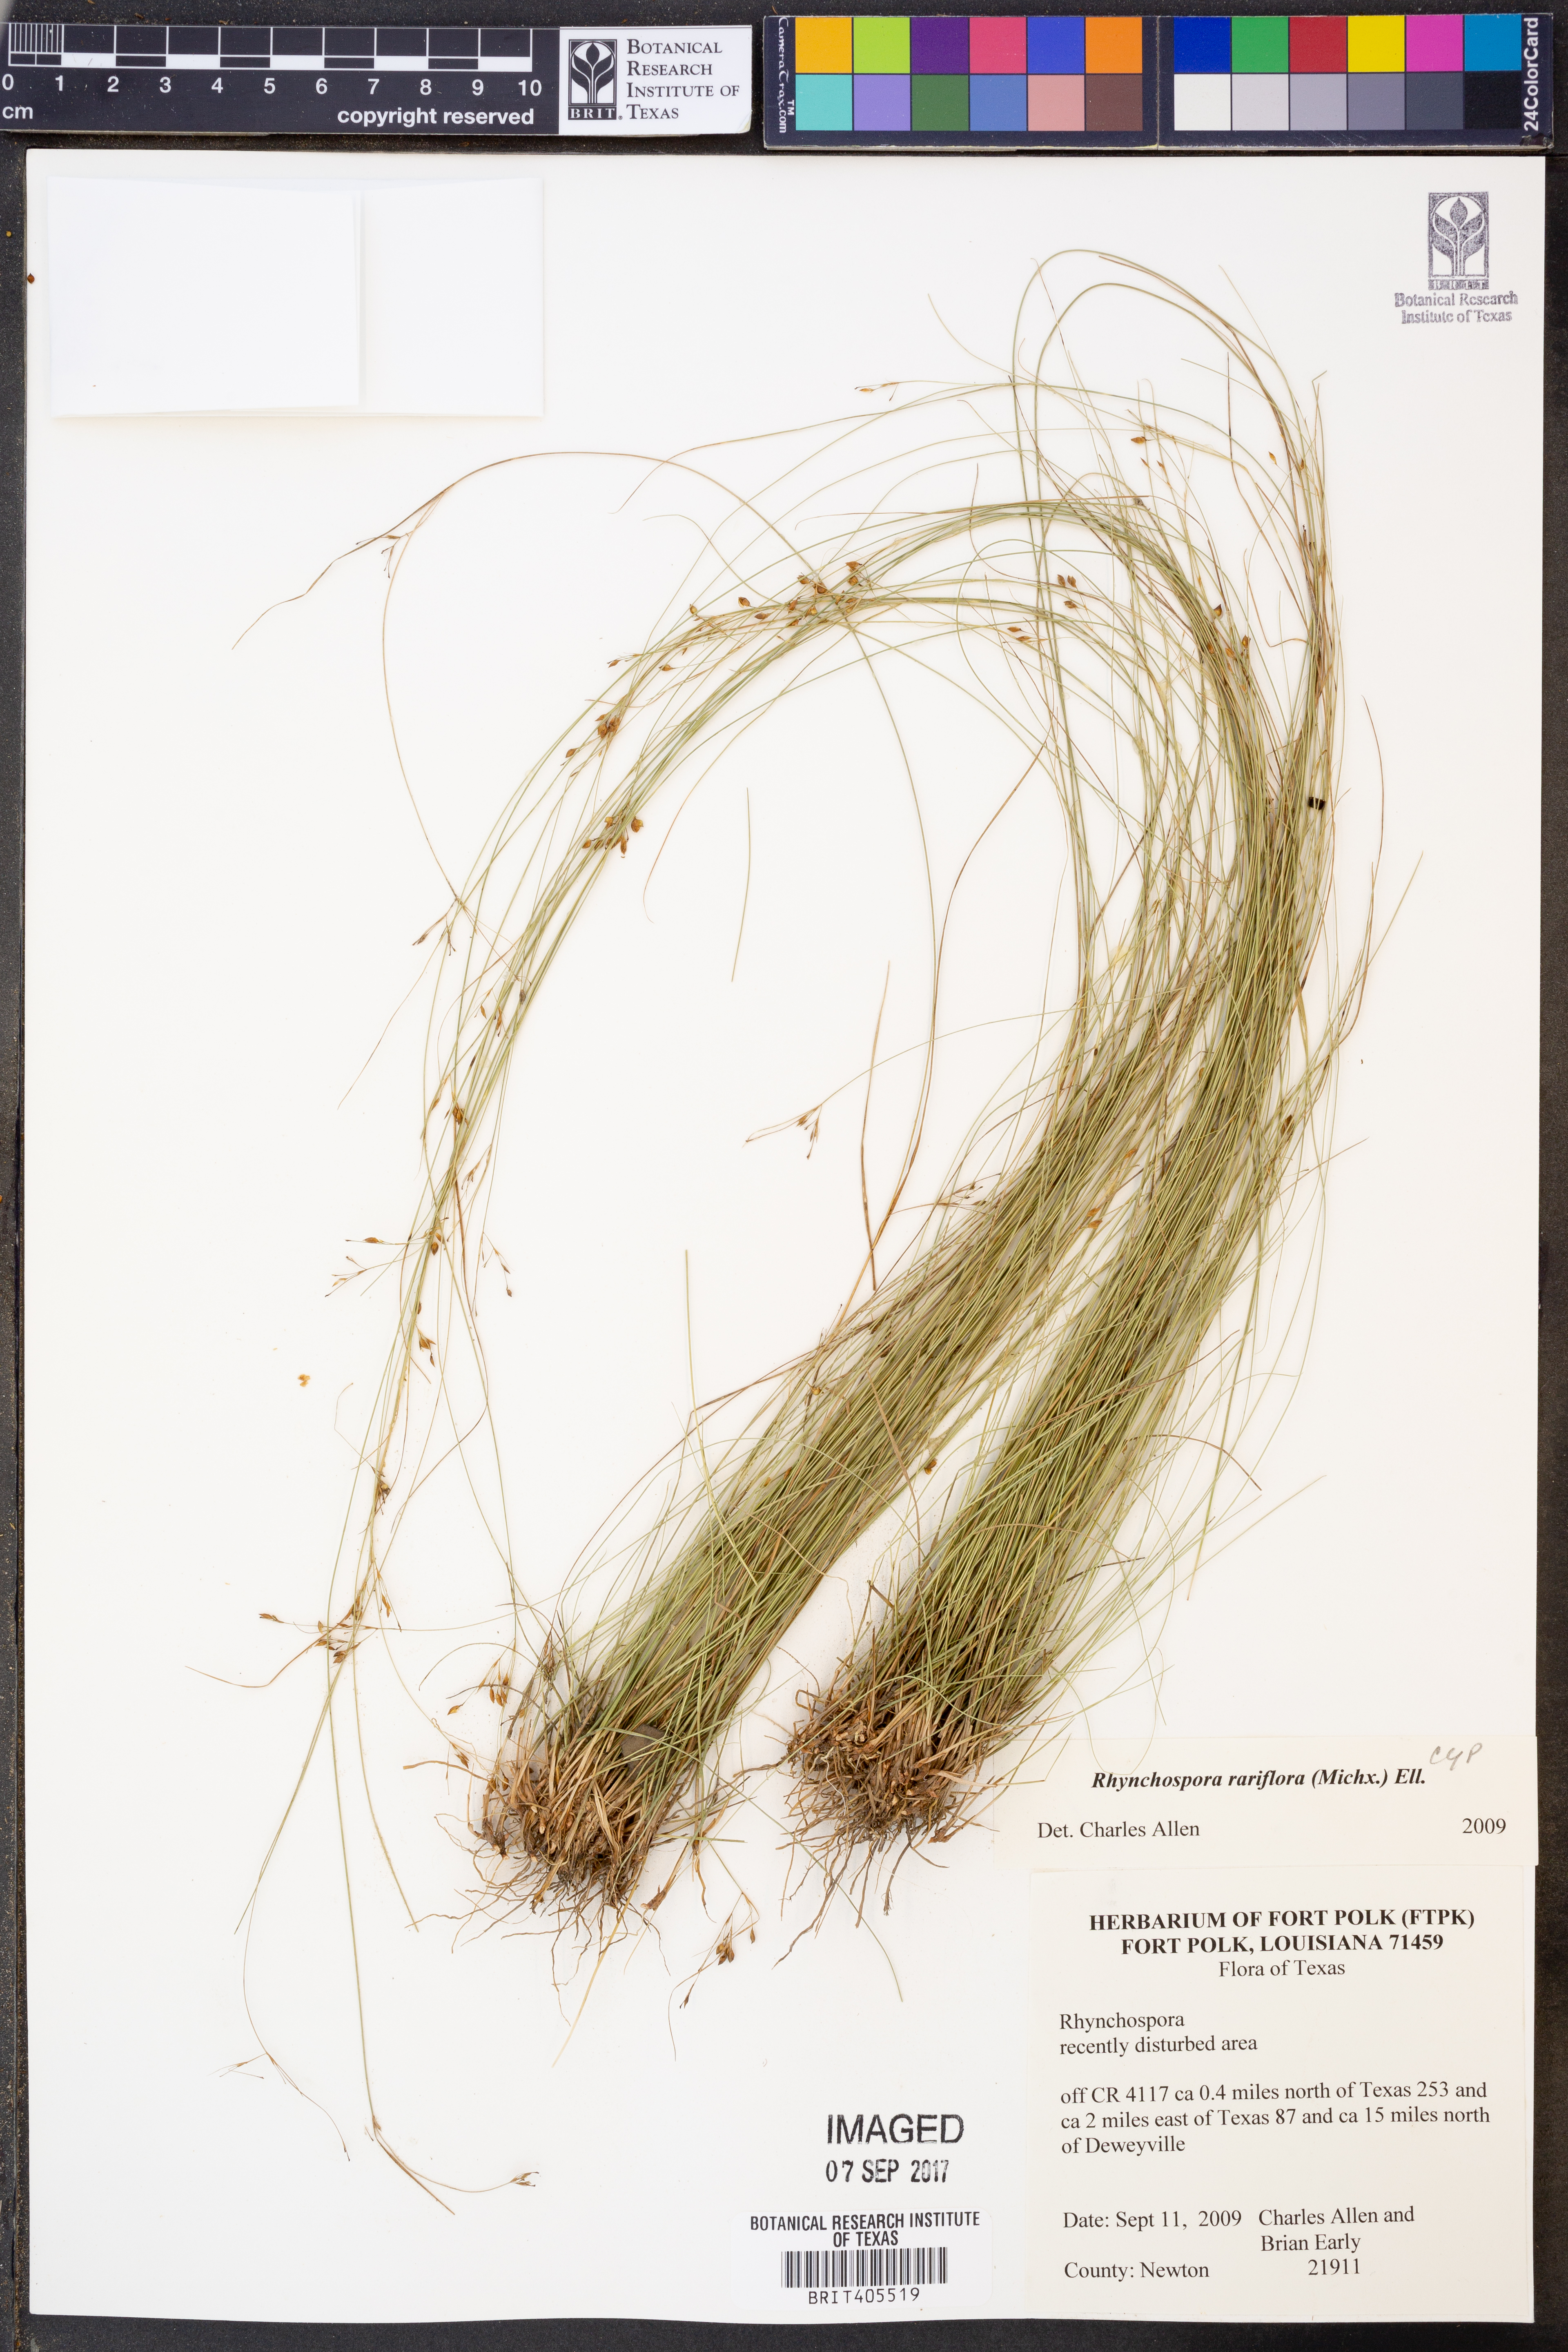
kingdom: Plantae
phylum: Tracheophyta
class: Liliopsida
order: Poales
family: Cyperaceae
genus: Rhynchospora
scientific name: Rhynchospora rariflora
